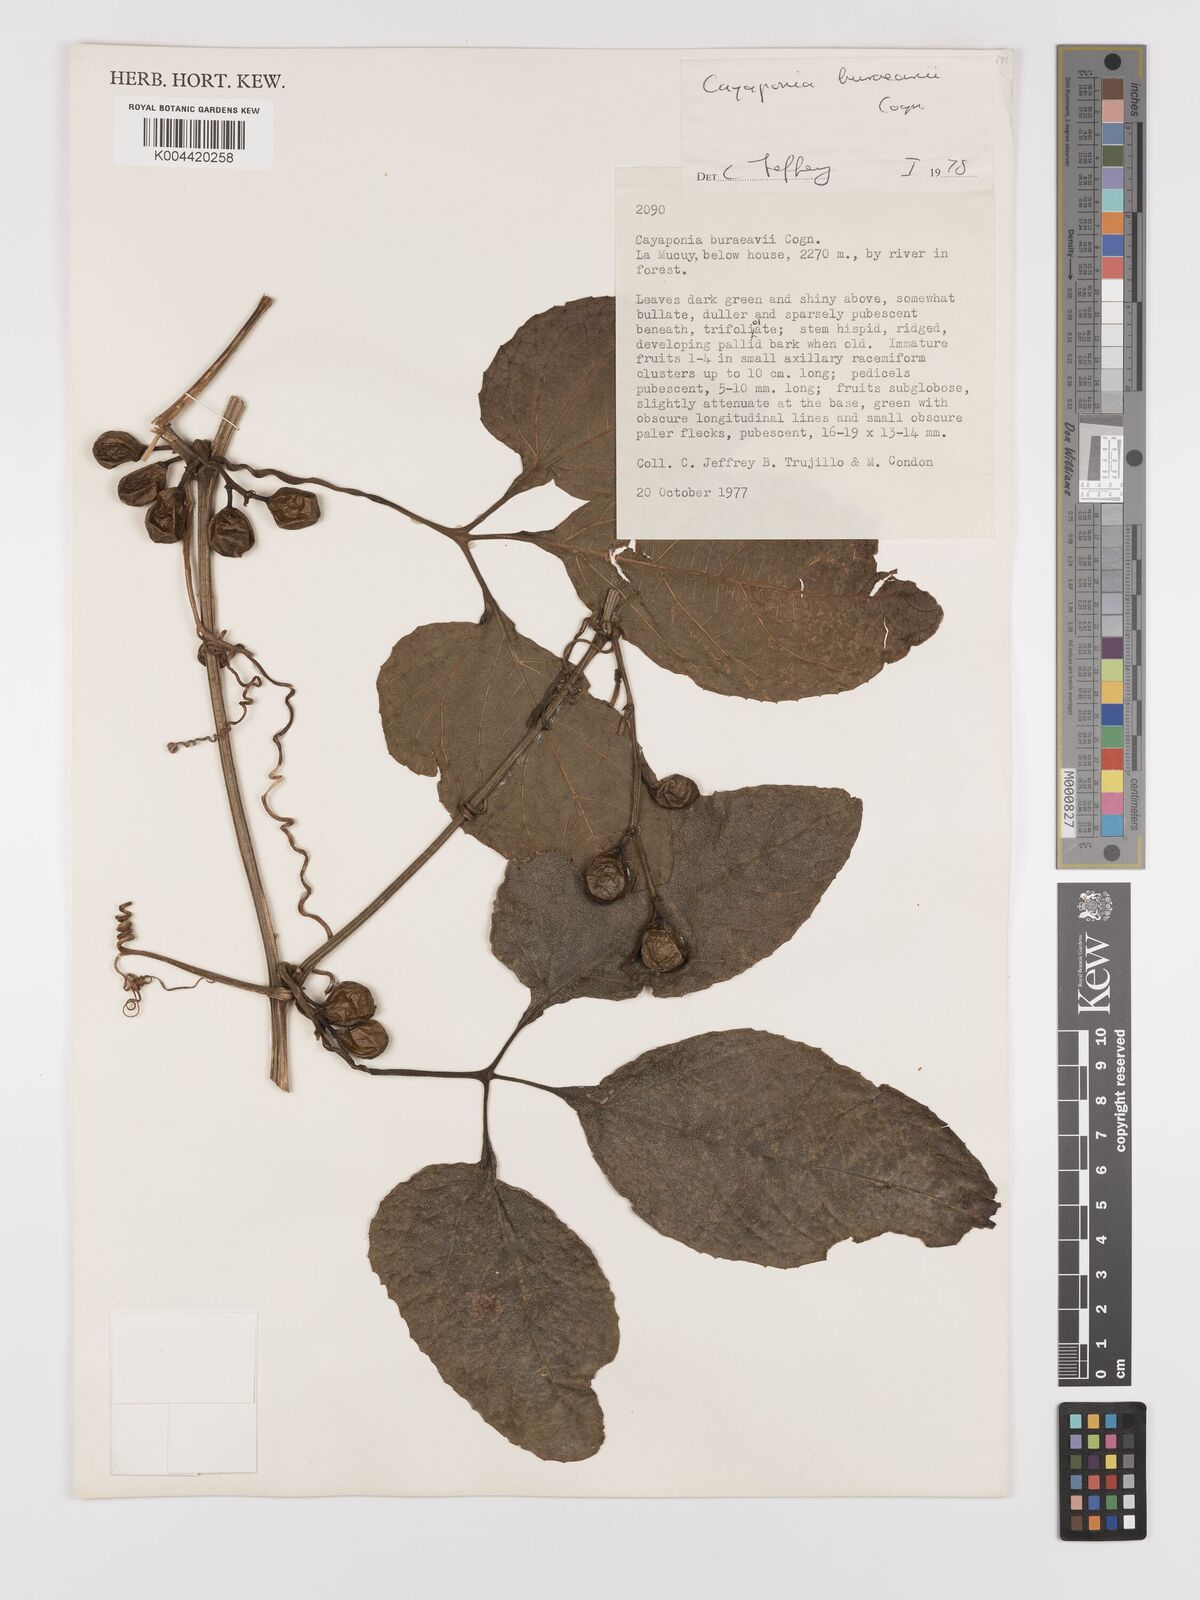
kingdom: Plantae
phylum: Tracheophyta
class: Magnoliopsida
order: Cucurbitales
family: Cucurbitaceae
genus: Cayaponia
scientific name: Cayaponia buraeavii
